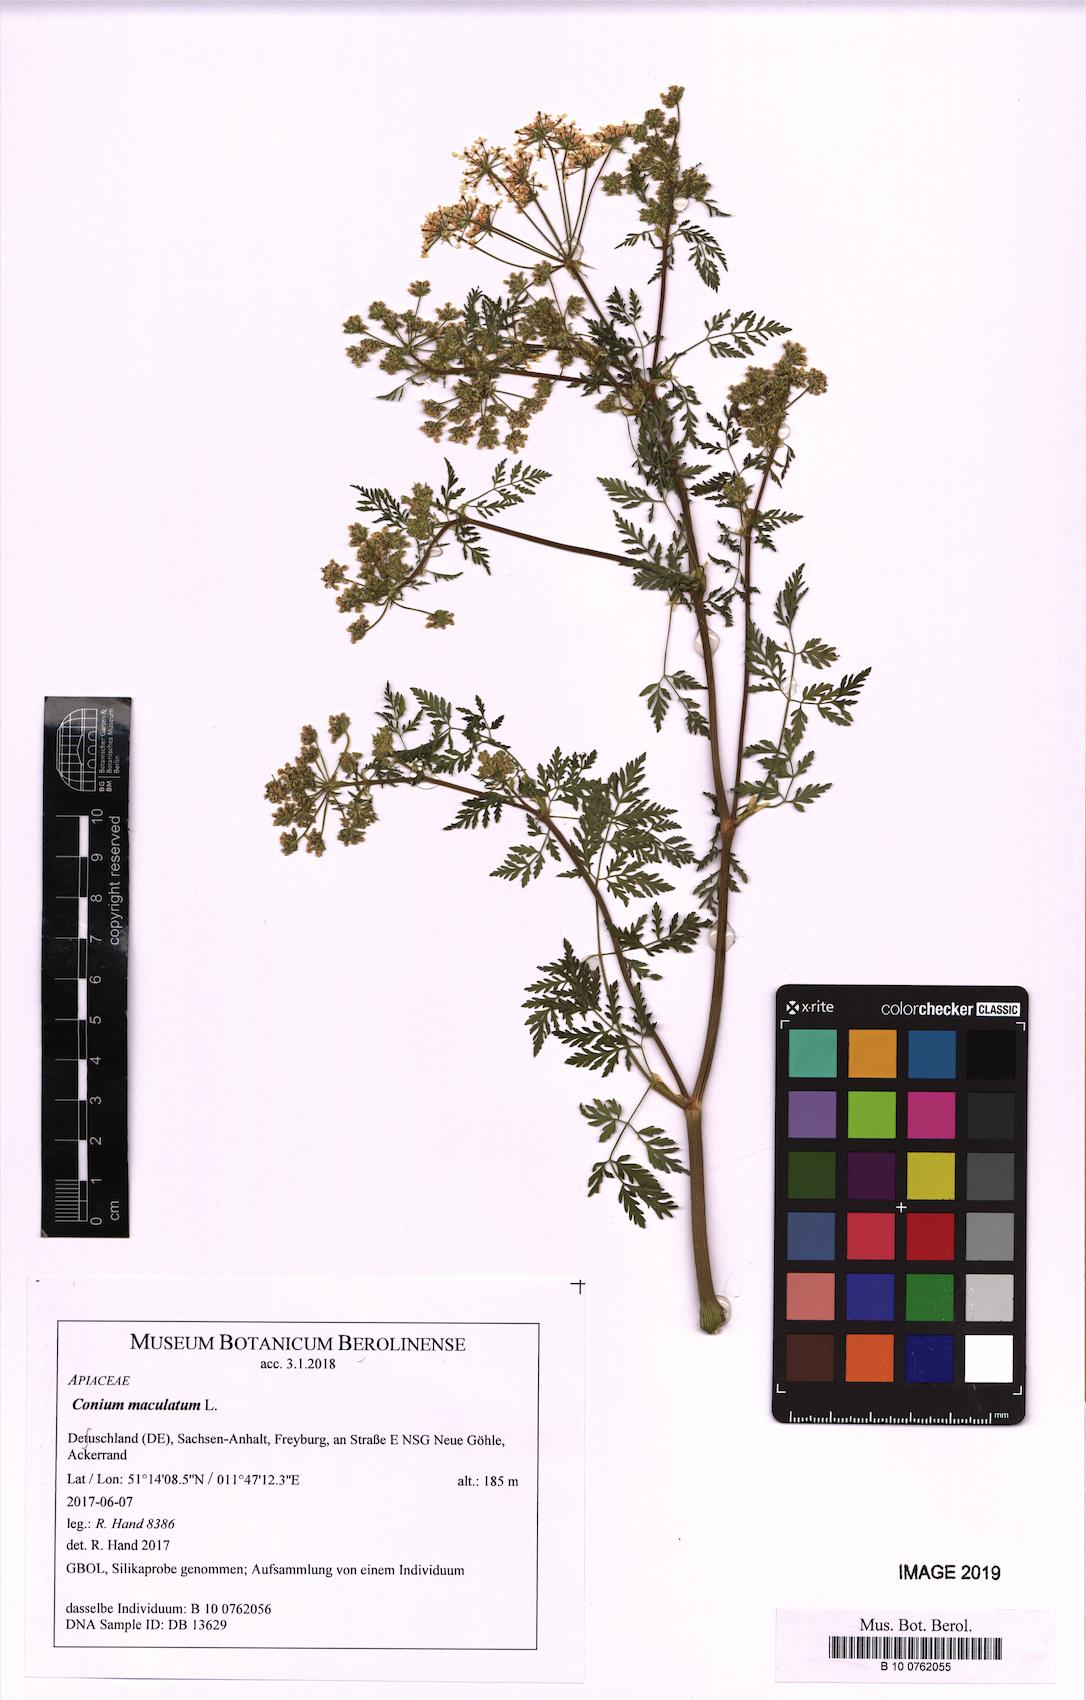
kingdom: Plantae
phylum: Tracheophyta
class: Magnoliopsida
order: Apiales
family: Apiaceae
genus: Conium
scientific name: Conium maculatum
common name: Hemlock
